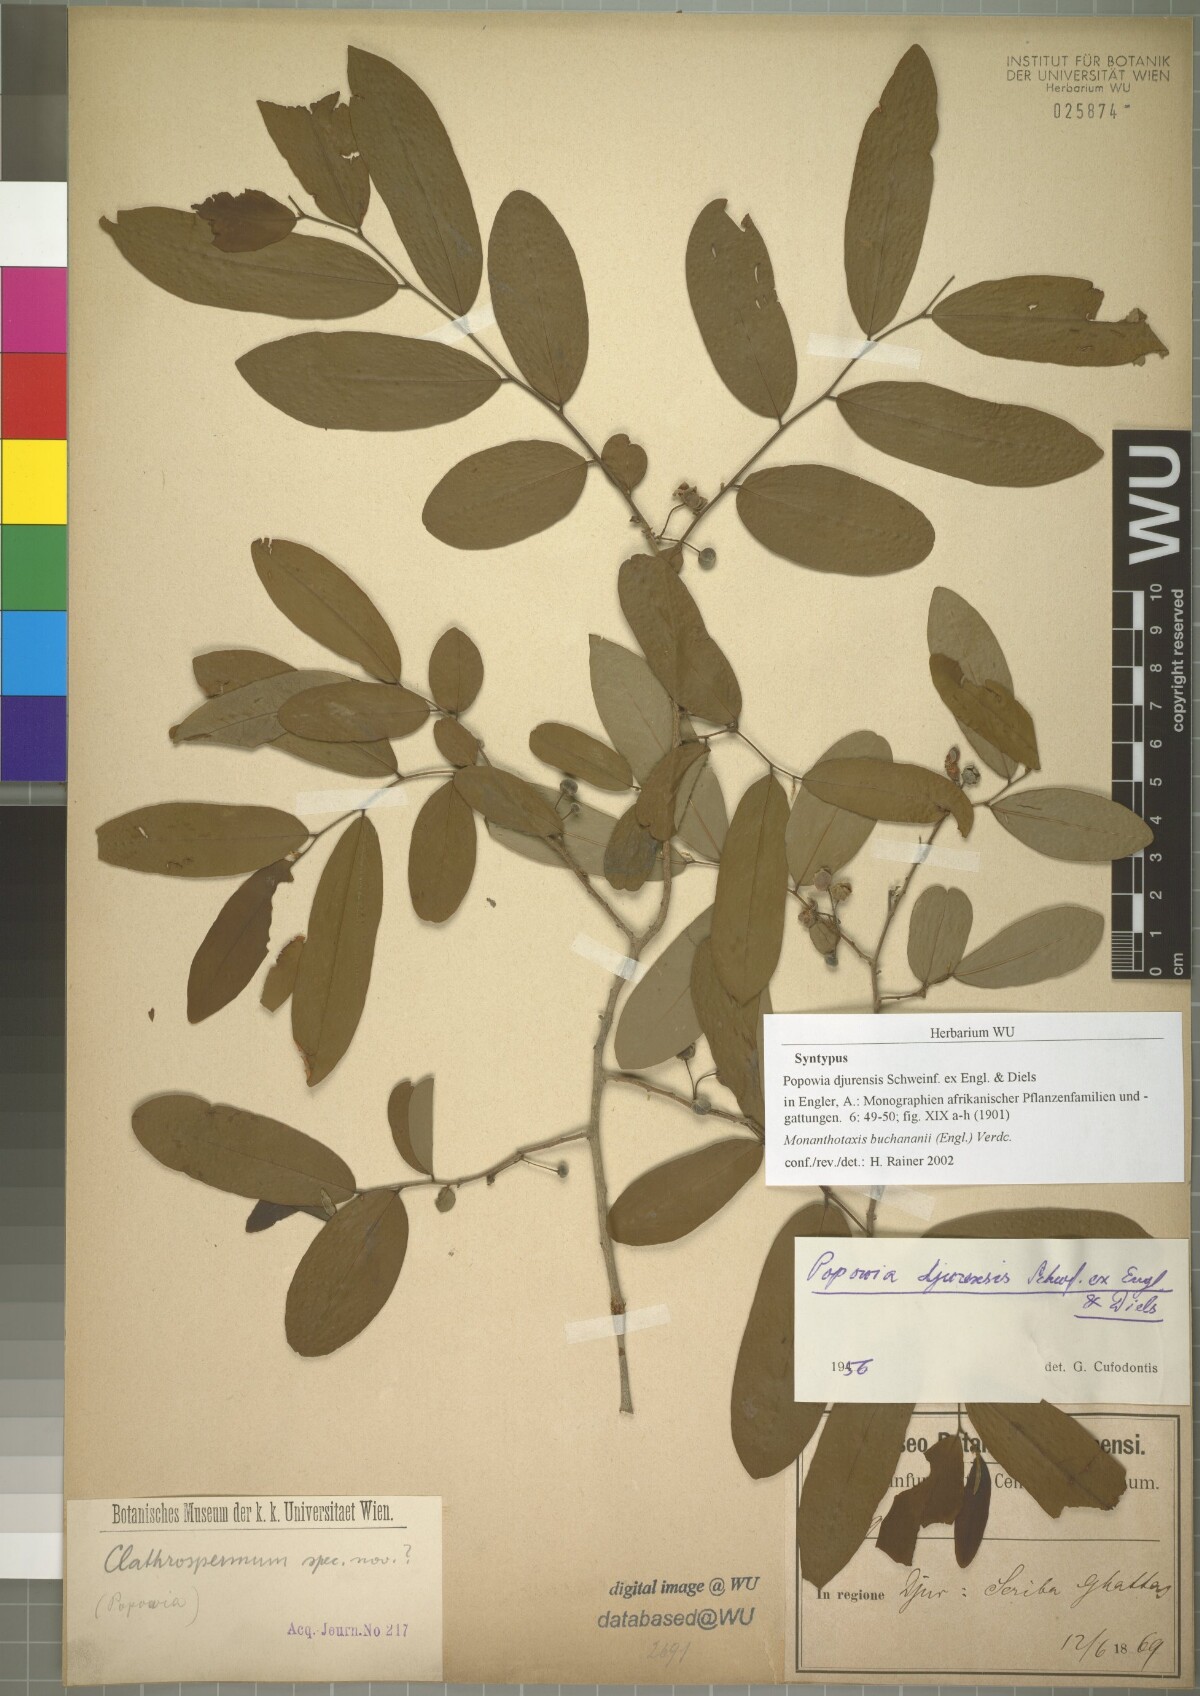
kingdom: Plantae
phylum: Tracheophyta
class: Magnoliopsida
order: Magnoliales
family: Annonaceae
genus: Monanthotaxis
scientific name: Monanthotaxis buchananii
